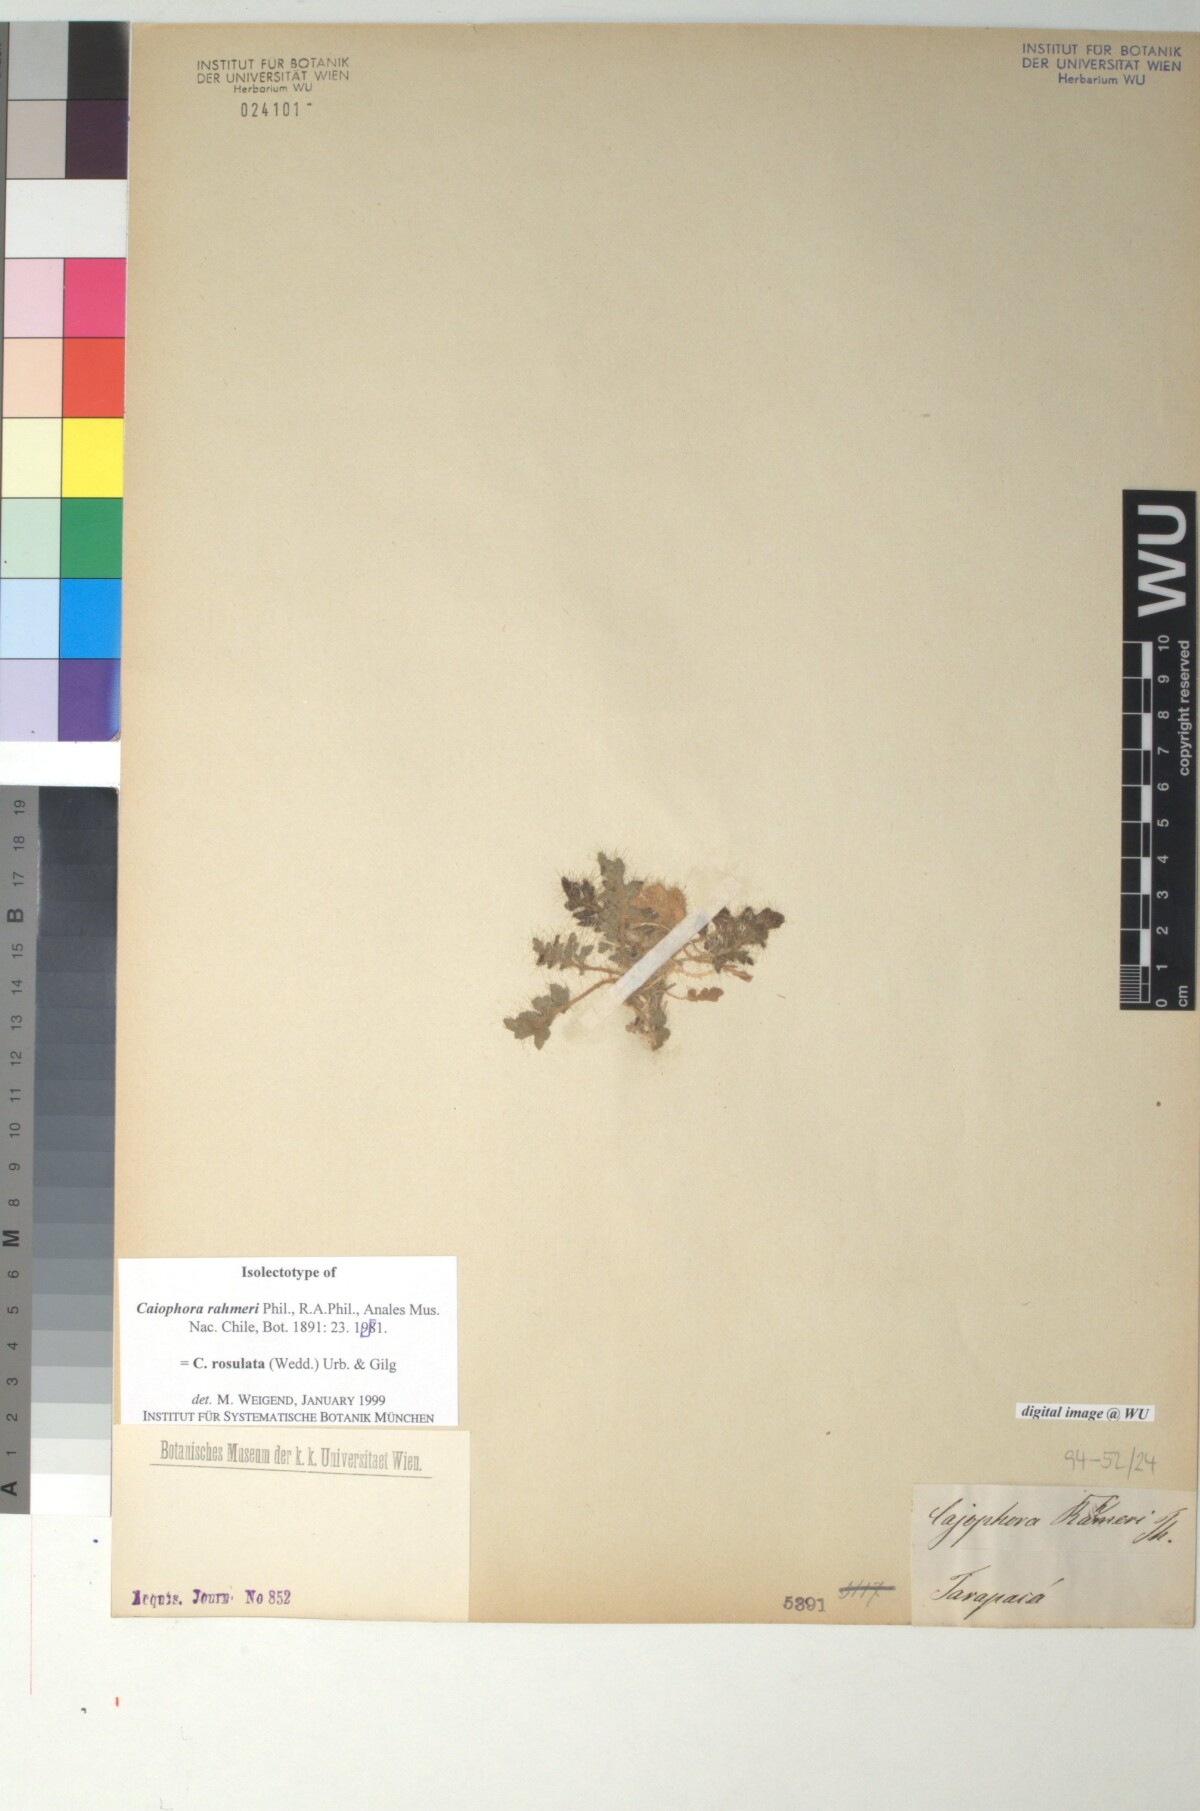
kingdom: Plantae
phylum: Tracheophyta
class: Magnoliopsida
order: Cornales
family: Loasaceae
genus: Caiophora
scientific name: Caiophora rosulata
